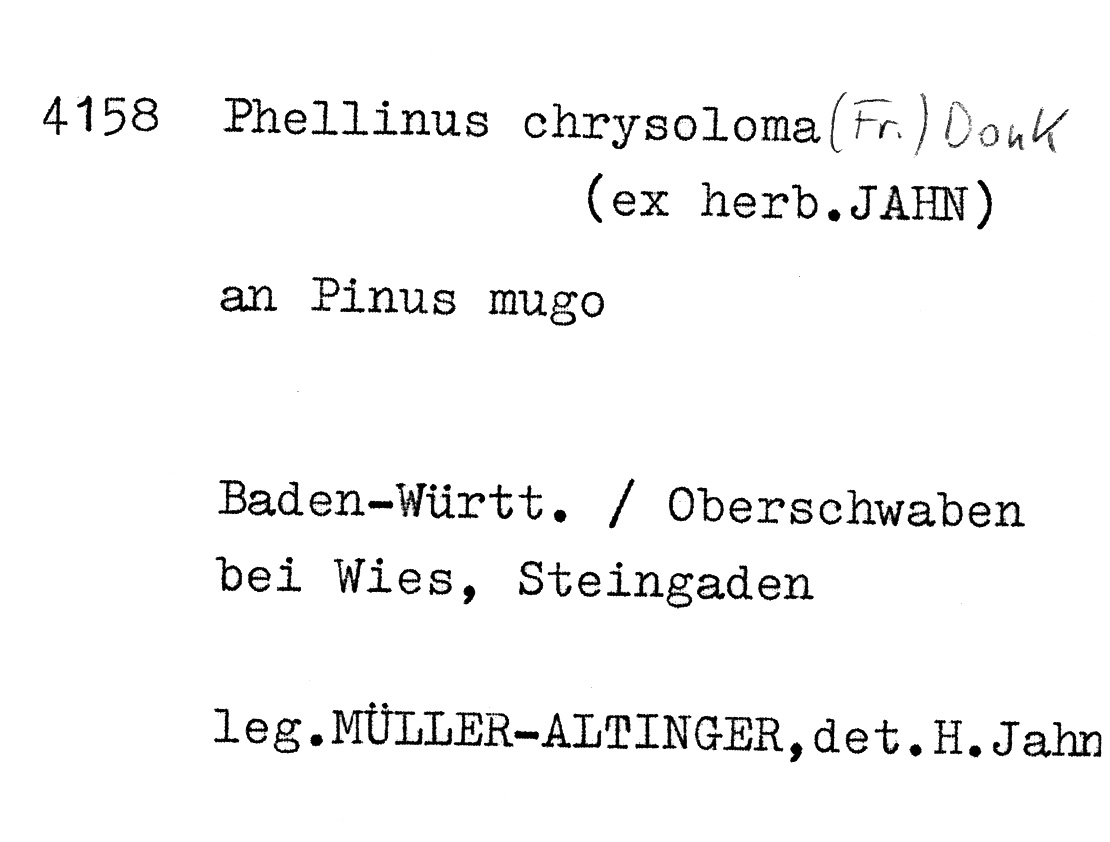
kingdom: Fungi
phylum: Basidiomycota
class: Agaricomycetes
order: Hymenochaetales
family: Hymenochaetaceae
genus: Phellinus
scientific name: Phellinus chrysoloma
